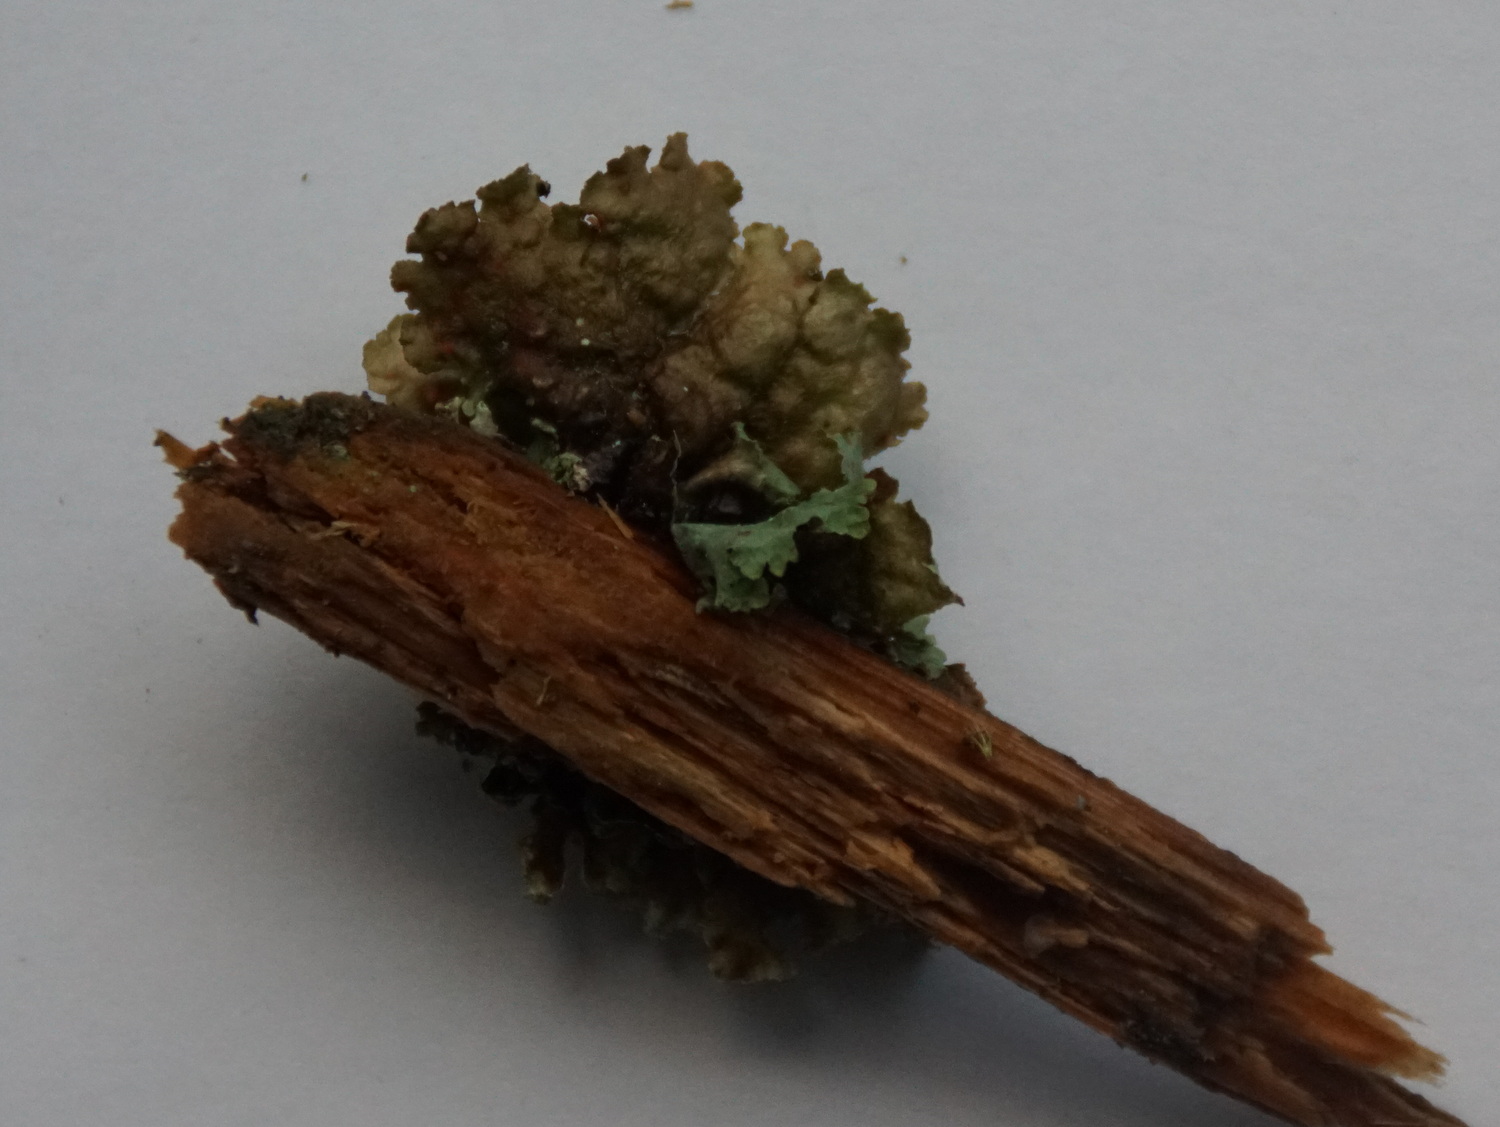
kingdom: Fungi
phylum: Ascomycota
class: Lecanoromycetes
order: Lecanorales
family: Parmeliaceae
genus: Platismatia
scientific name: Platismatia glauca
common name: blågrå papirlav
